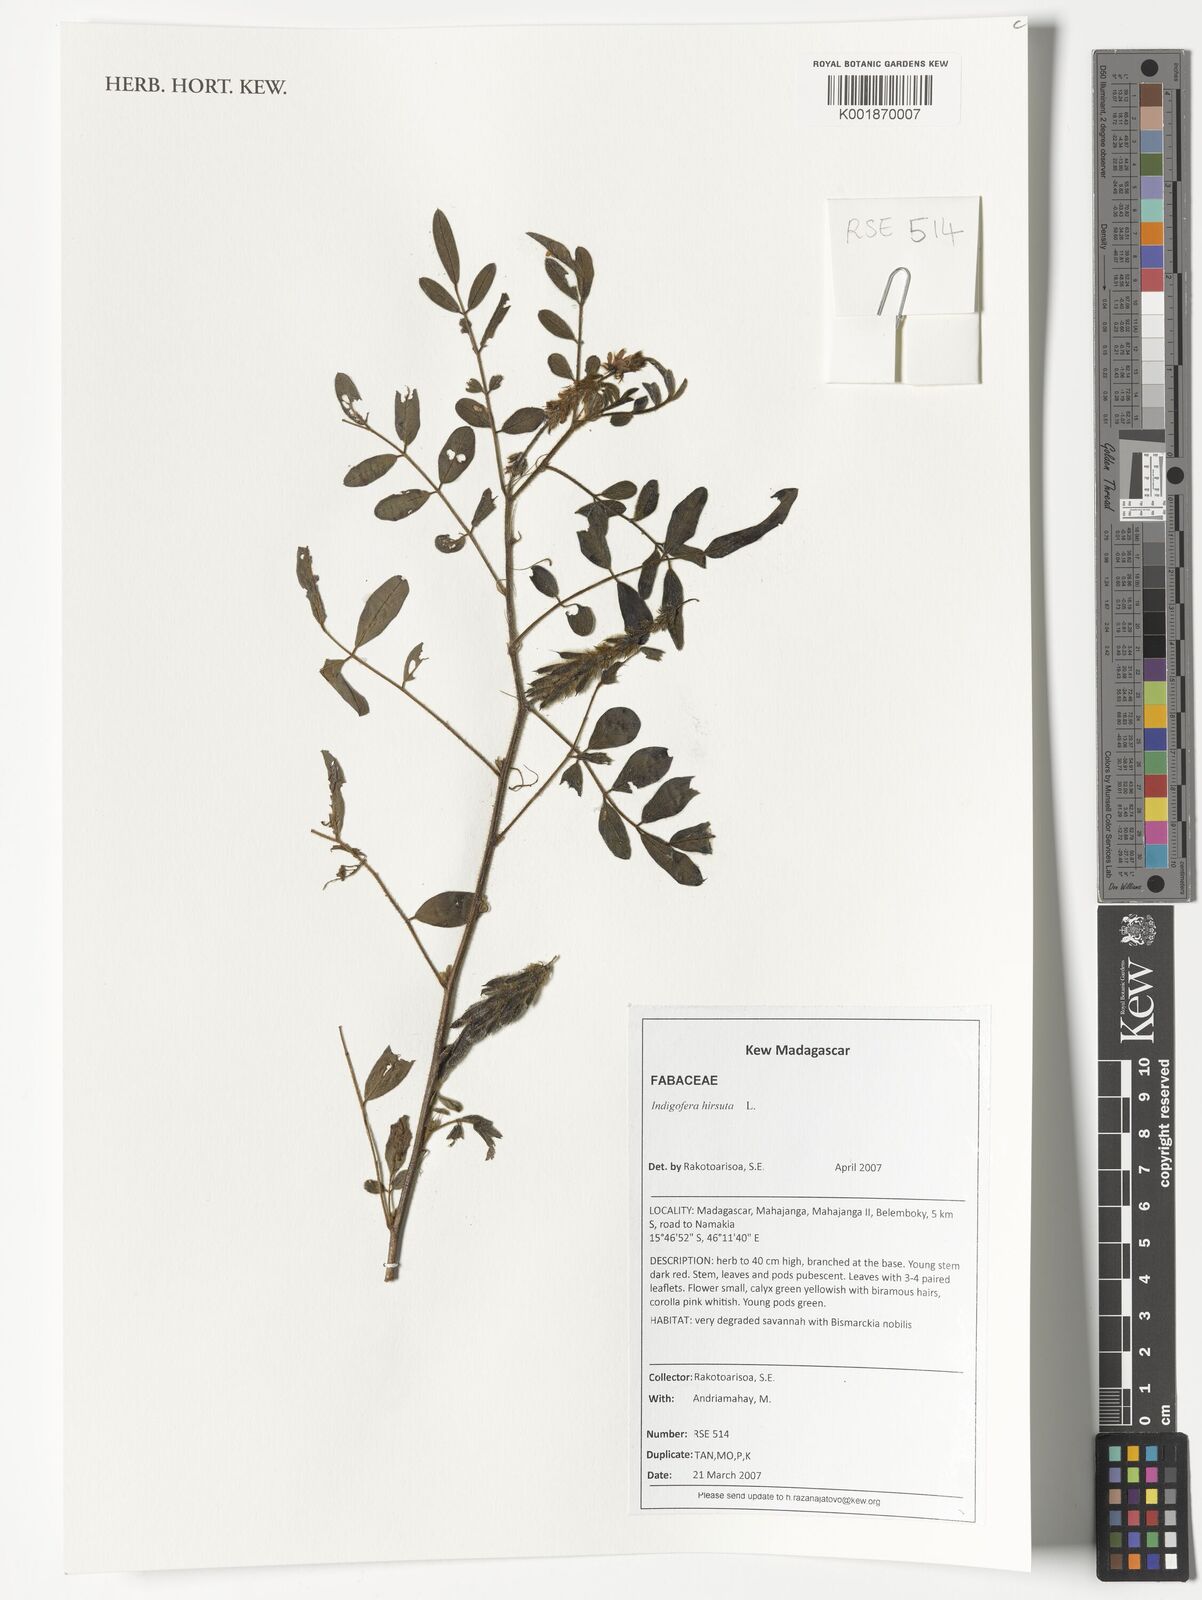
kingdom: Plantae
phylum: Tracheophyta
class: Magnoliopsida
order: Fabales
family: Fabaceae
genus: Indigofera
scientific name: Indigofera hirsuta
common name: Hairy indigo
